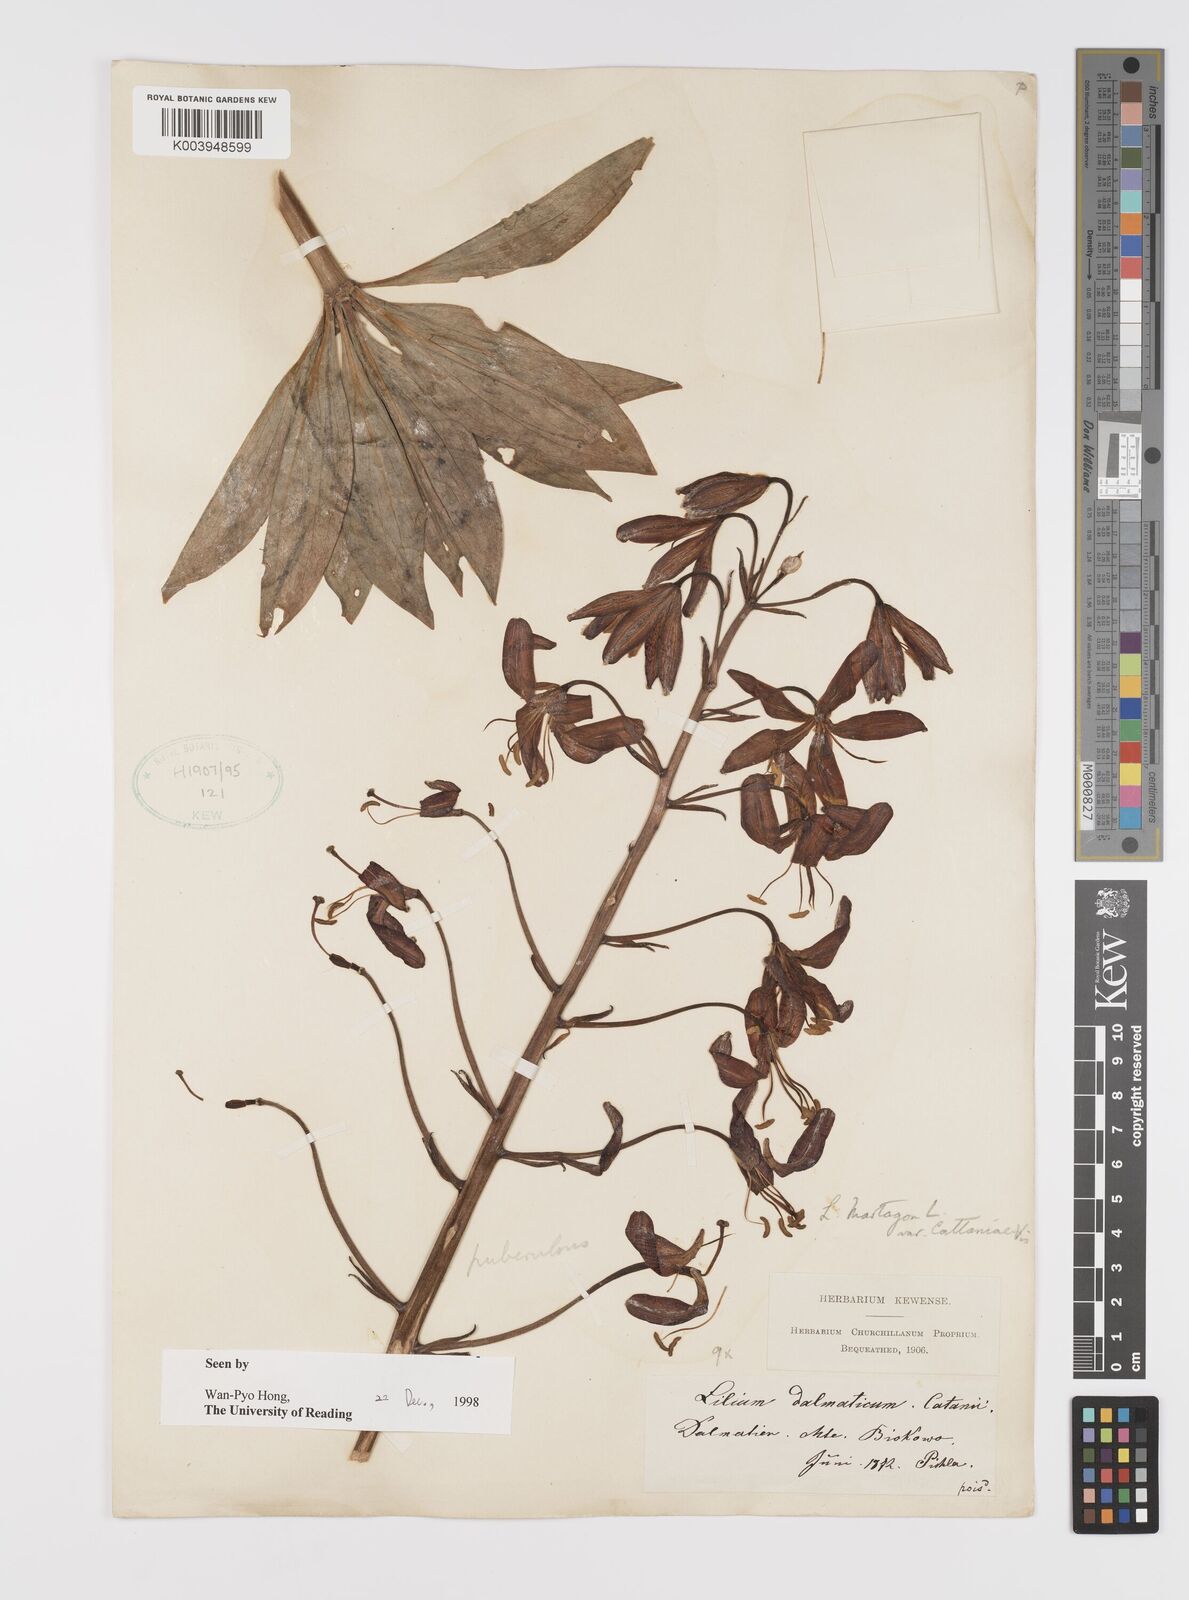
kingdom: Plantae
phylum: Tracheophyta
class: Liliopsida
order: Liliales
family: Liliaceae
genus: Lilium
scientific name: Lilium martagon
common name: Martagon lily
